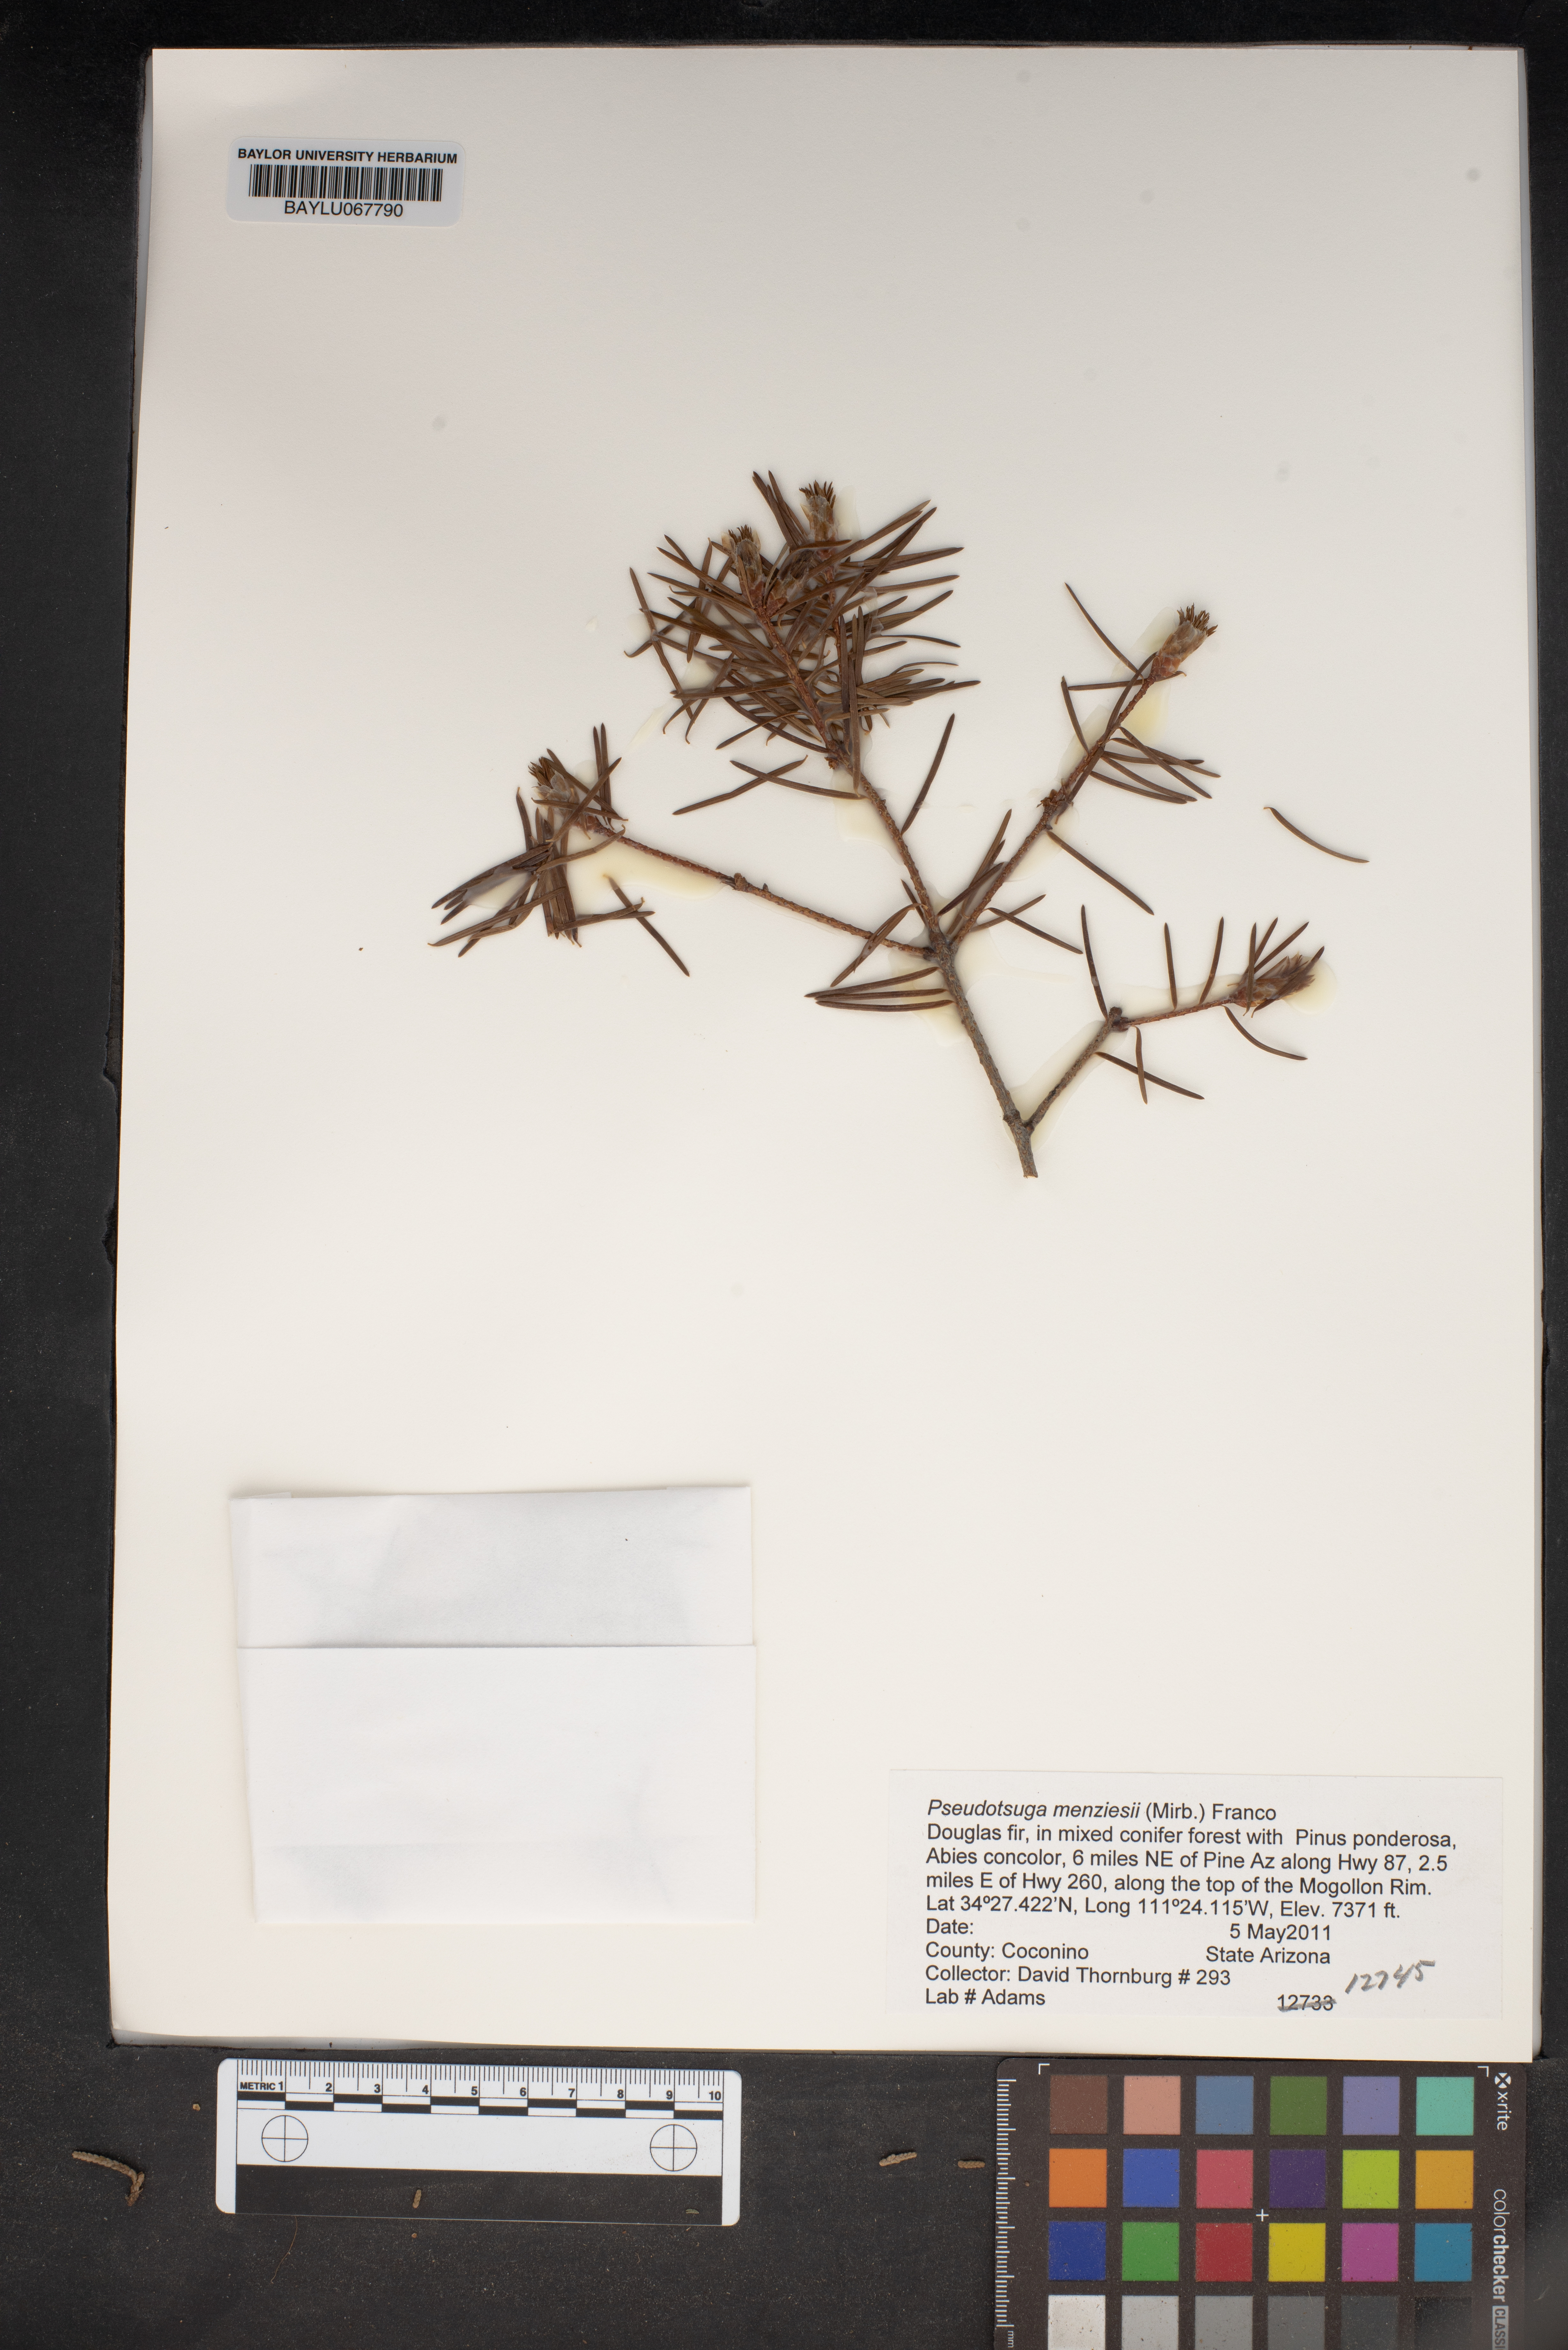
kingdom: Plantae
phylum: Tracheophyta
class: Pinopsida
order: Pinales
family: Pinaceae
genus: Pseudotsuga
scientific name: Pseudotsuga menziesii
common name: Douglas fir
